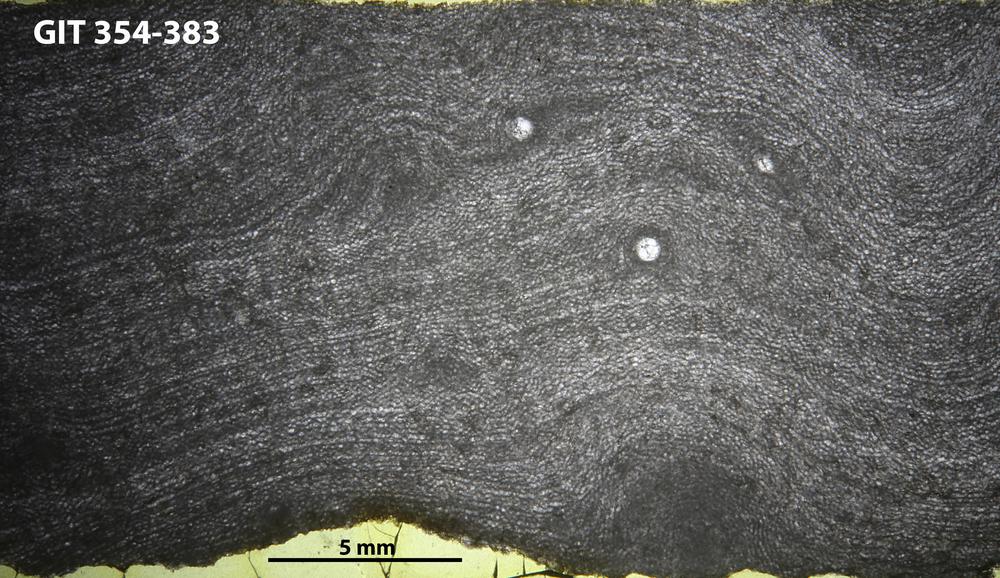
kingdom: Animalia
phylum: Porifera
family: Clathrodictyidae
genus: Clathrodictyon
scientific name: Clathrodictyon boreale
